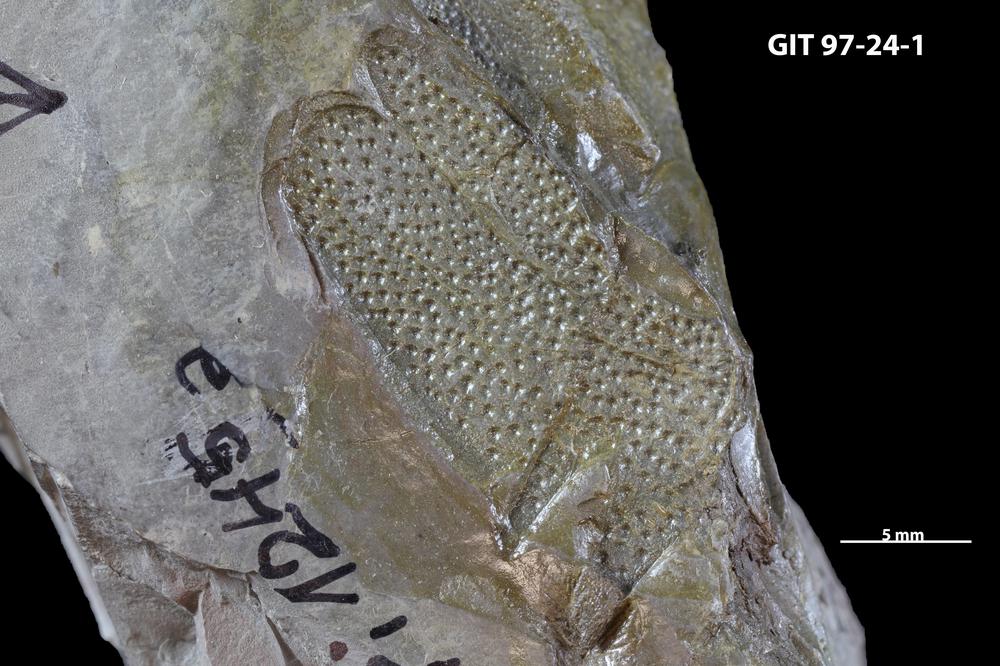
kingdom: Animalia
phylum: Chordata
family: Holonematidae
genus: Holonema
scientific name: Holonema
